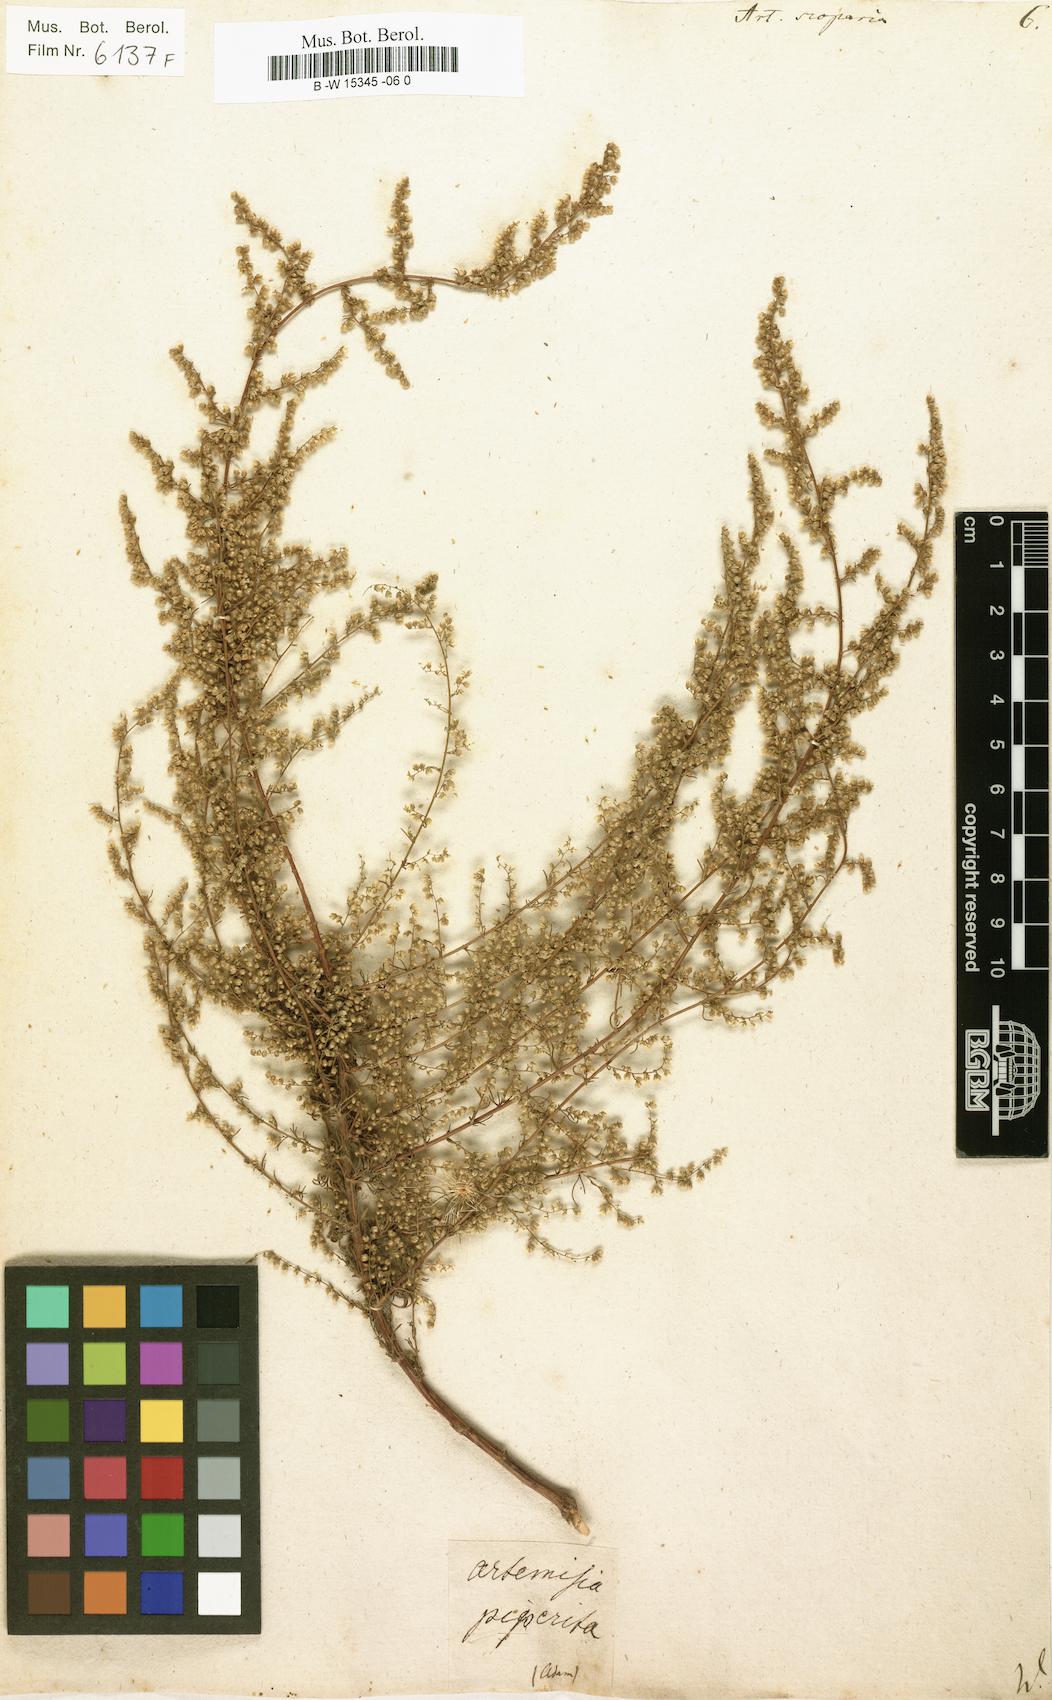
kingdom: Plantae
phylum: Tracheophyta
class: Magnoliopsida
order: Asterales
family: Asteraceae
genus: Artemisia
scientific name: Artemisia scoparia
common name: Redstem wormwood
